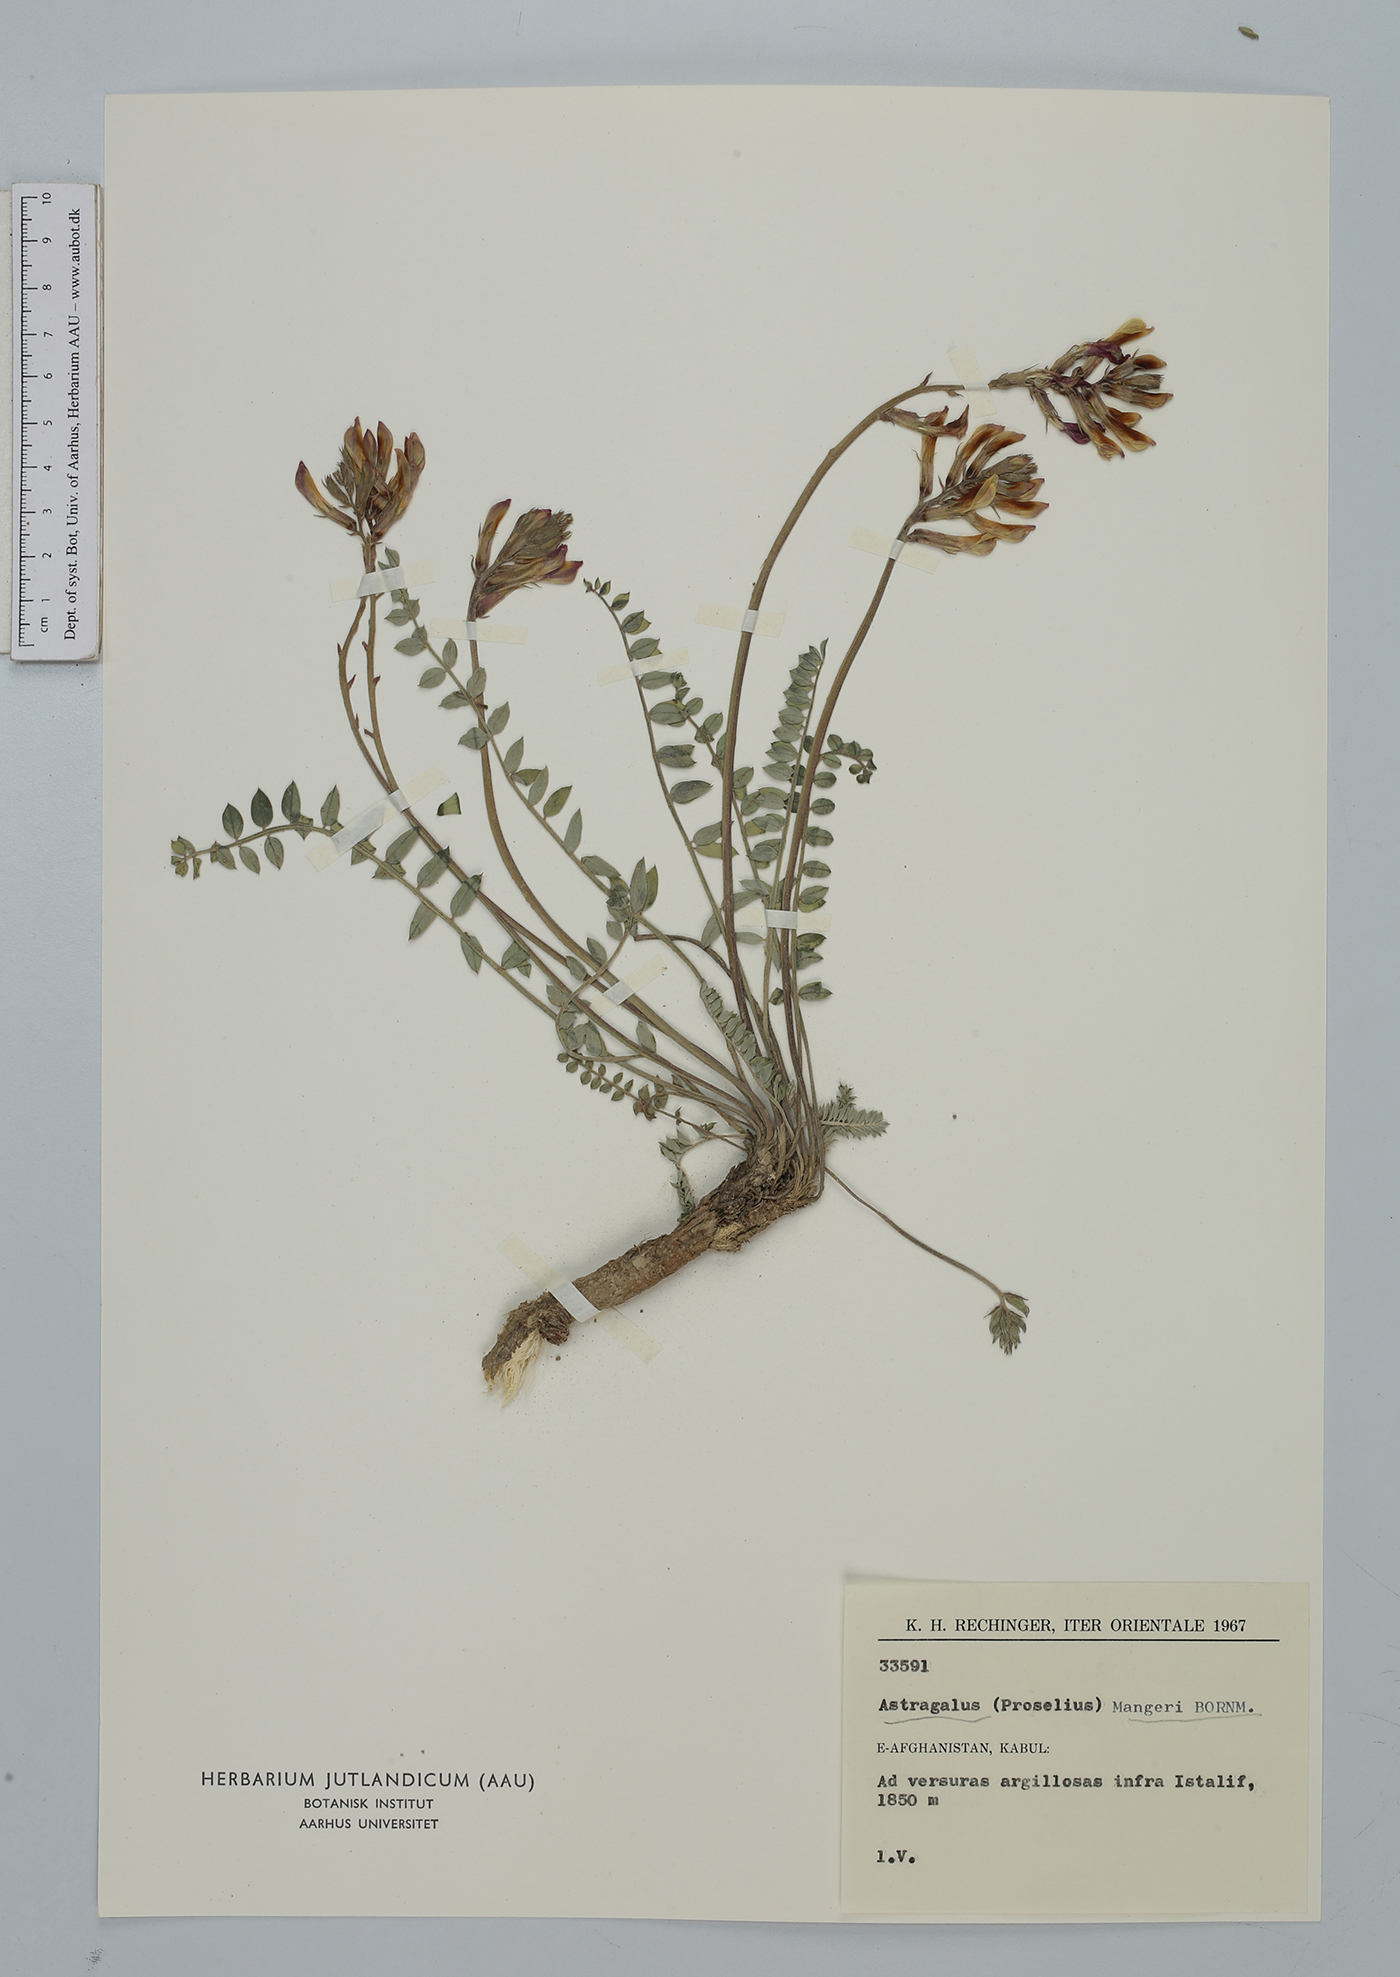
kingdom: Plantae
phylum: Tracheophyta
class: Magnoliopsida
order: Fabales
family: Fabaceae
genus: Astragalus
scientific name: Astragalus cerasinus
